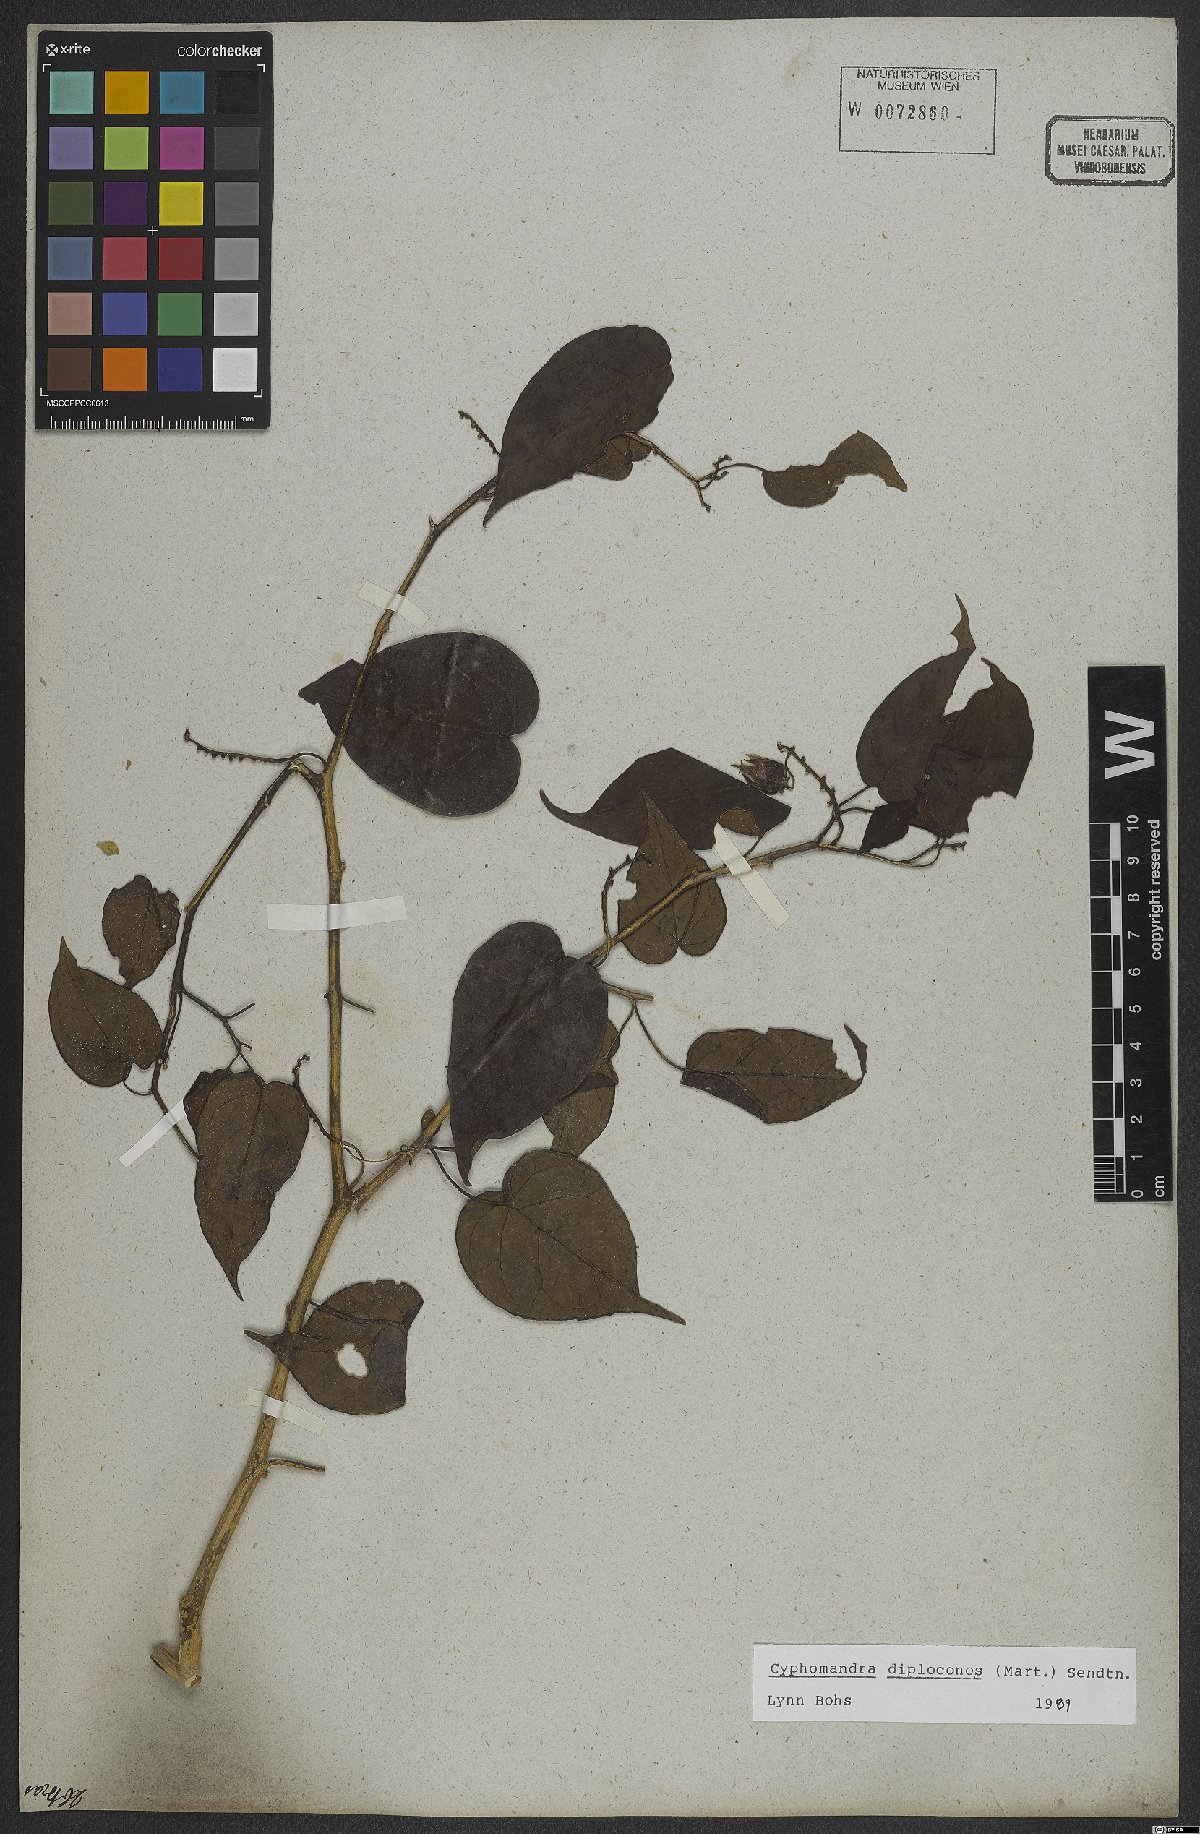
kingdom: Plantae
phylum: Tracheophyta
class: Magnoliopsida
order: Solanales
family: Solanaceae
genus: Solanum
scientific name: Solanum diploconos
